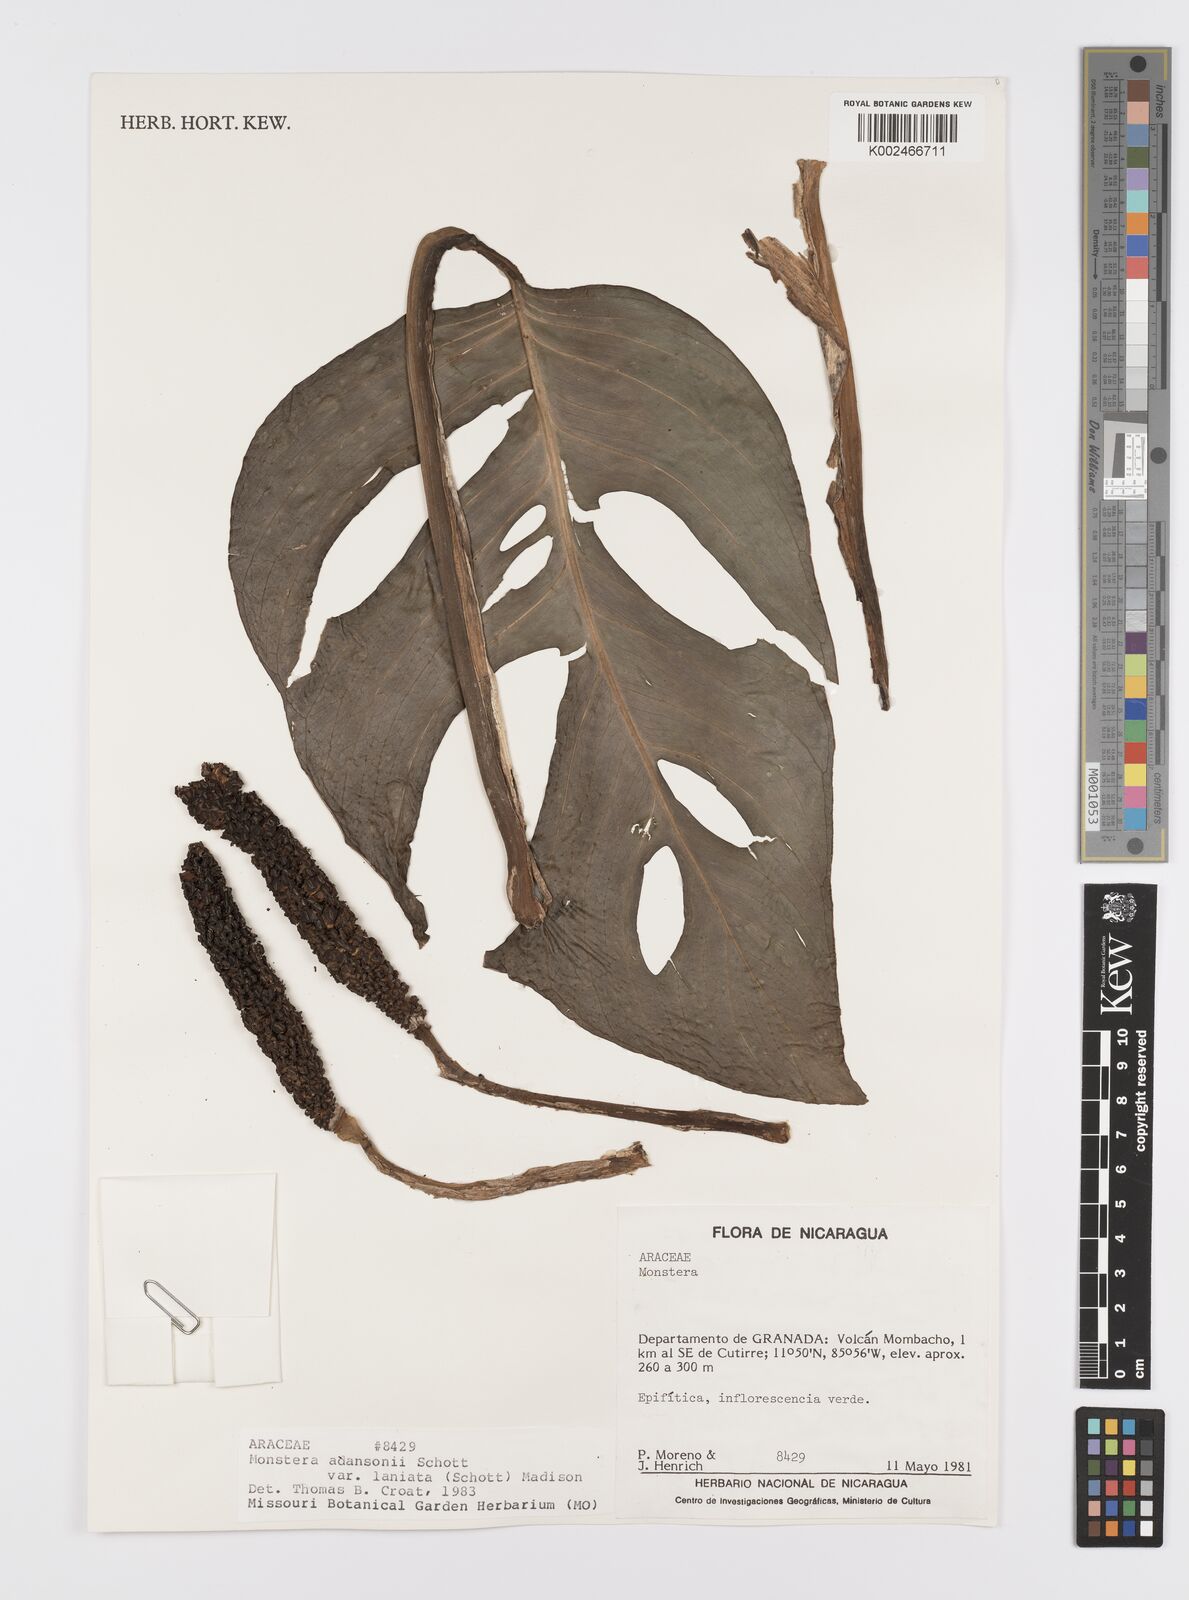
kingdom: Plantae
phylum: Tracheophyta
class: Liliopsida
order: Alismatales
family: Araceae
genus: Monstera
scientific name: Monstera adansonii
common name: Tarovine
